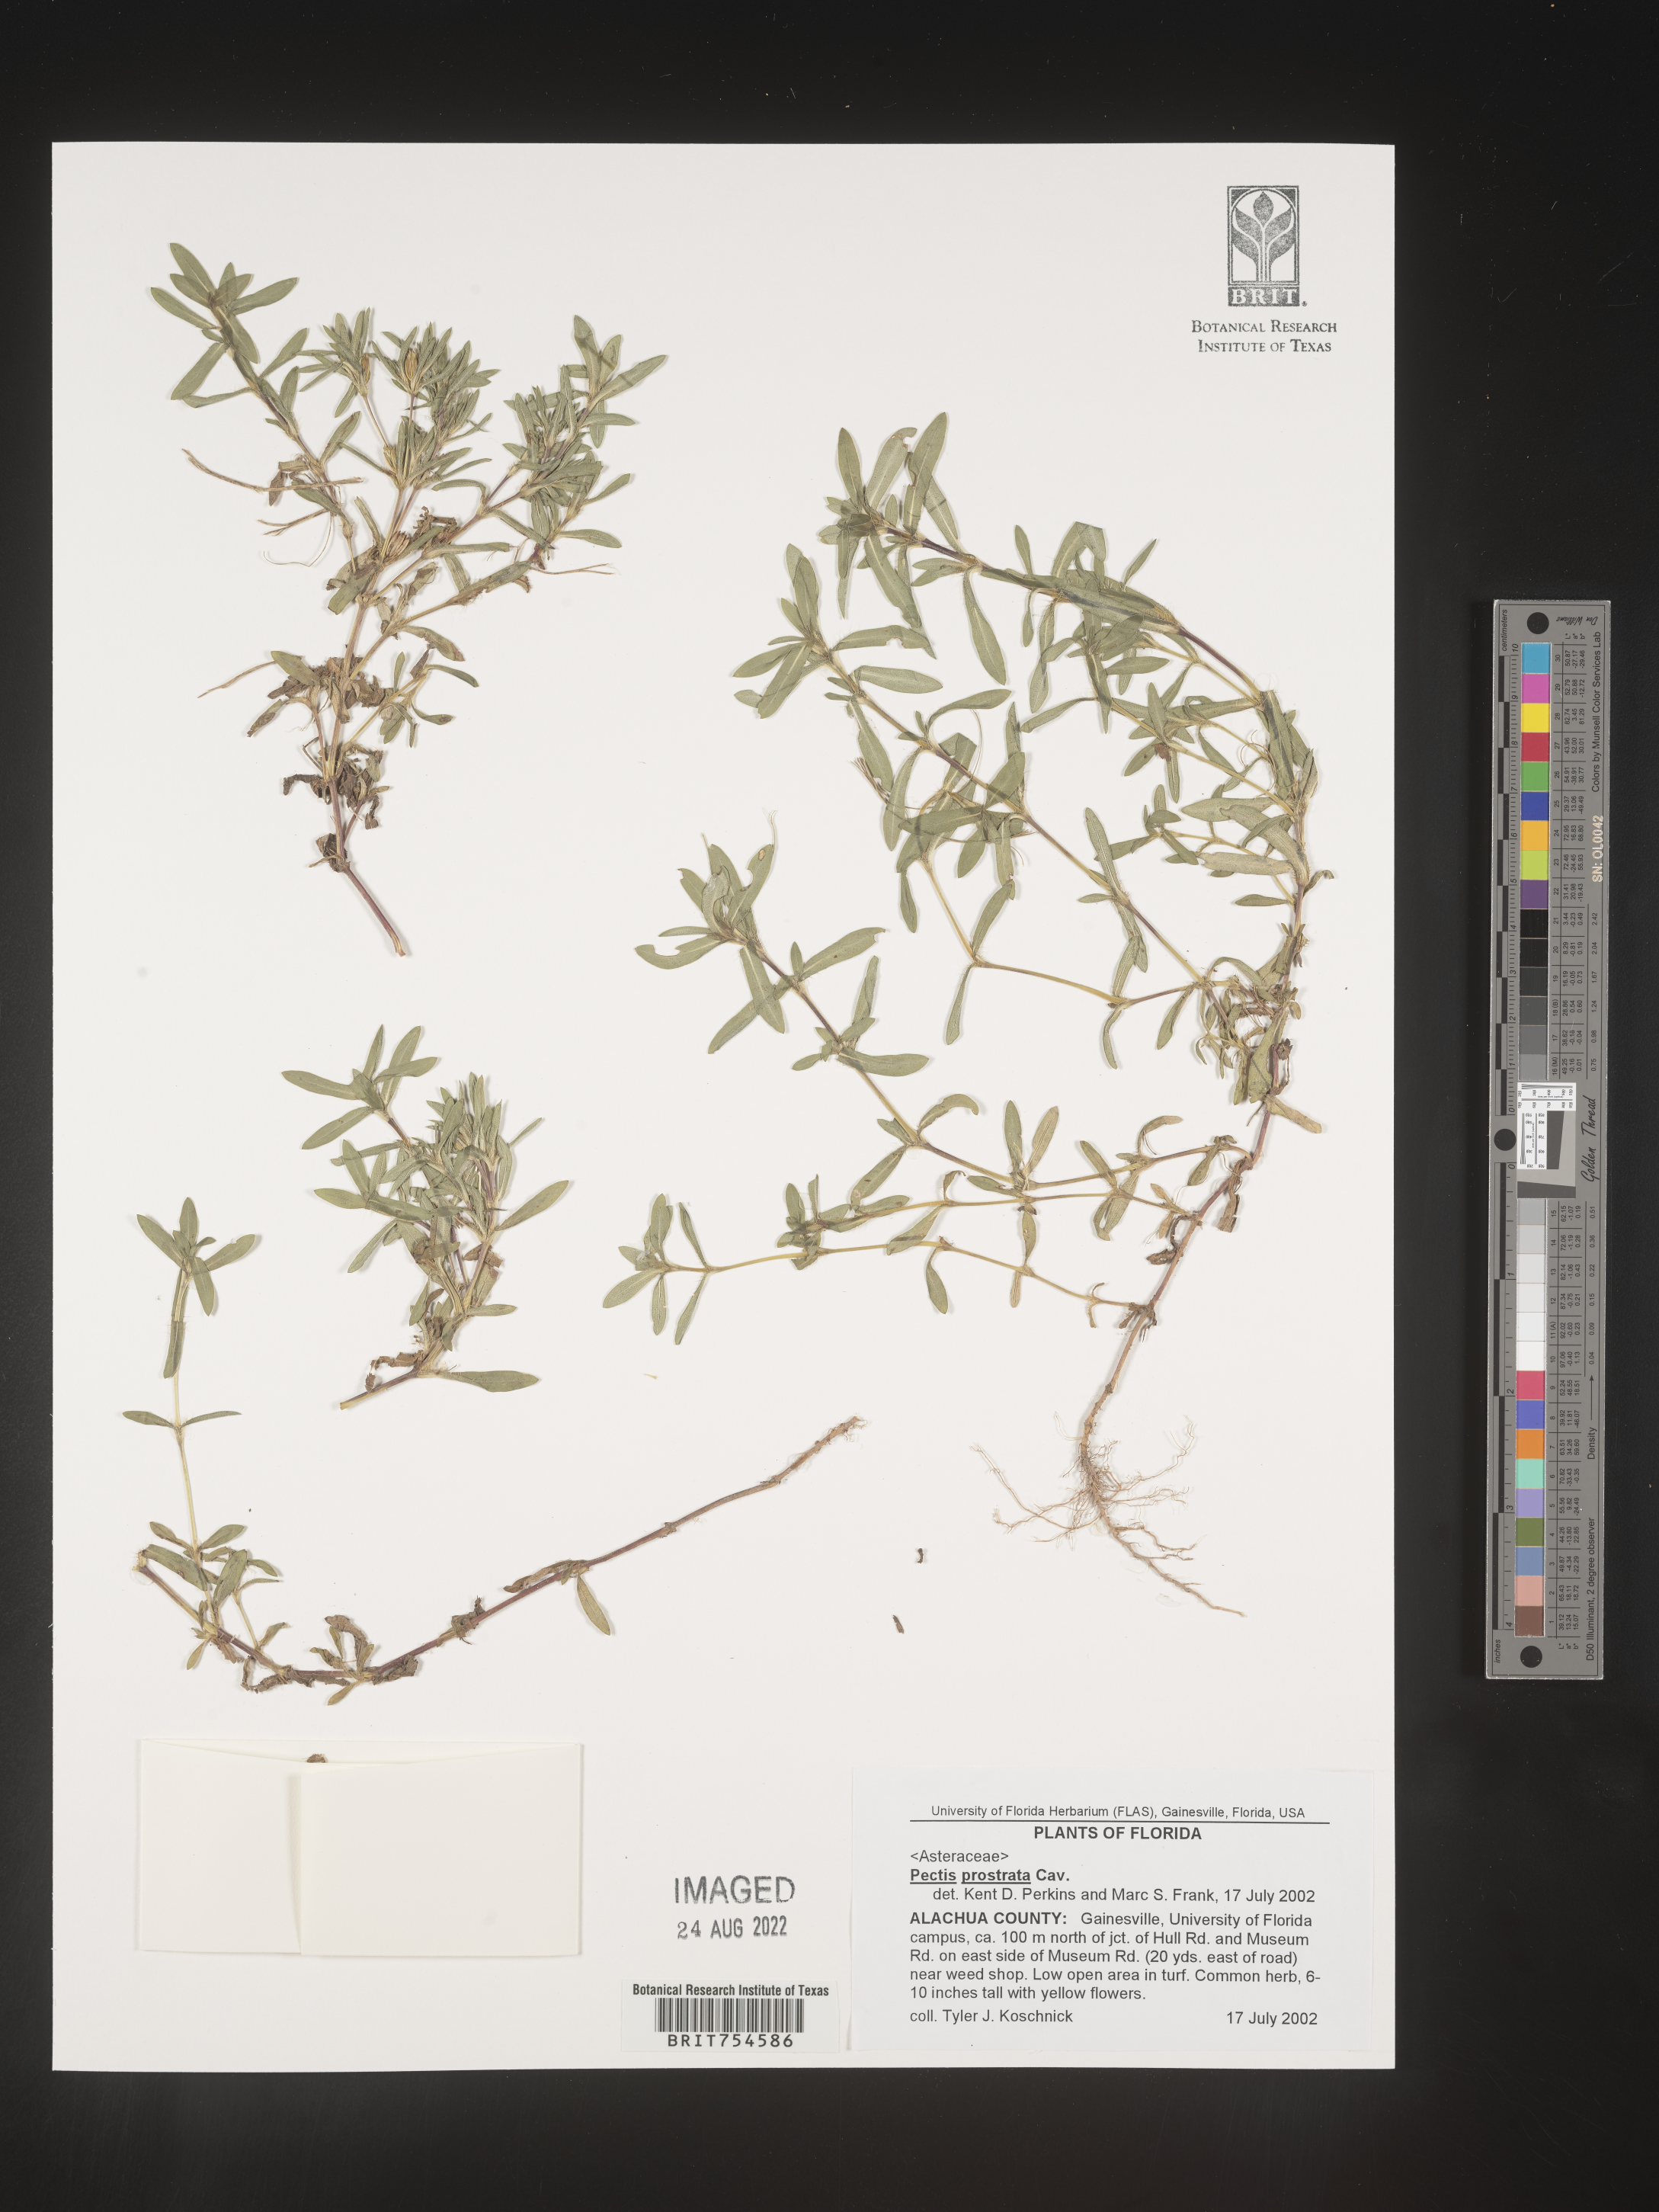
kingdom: Plantae
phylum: Tracheophyta
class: Magnoliopsida
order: Asterales
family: Asteraceae
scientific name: Asteraceae
